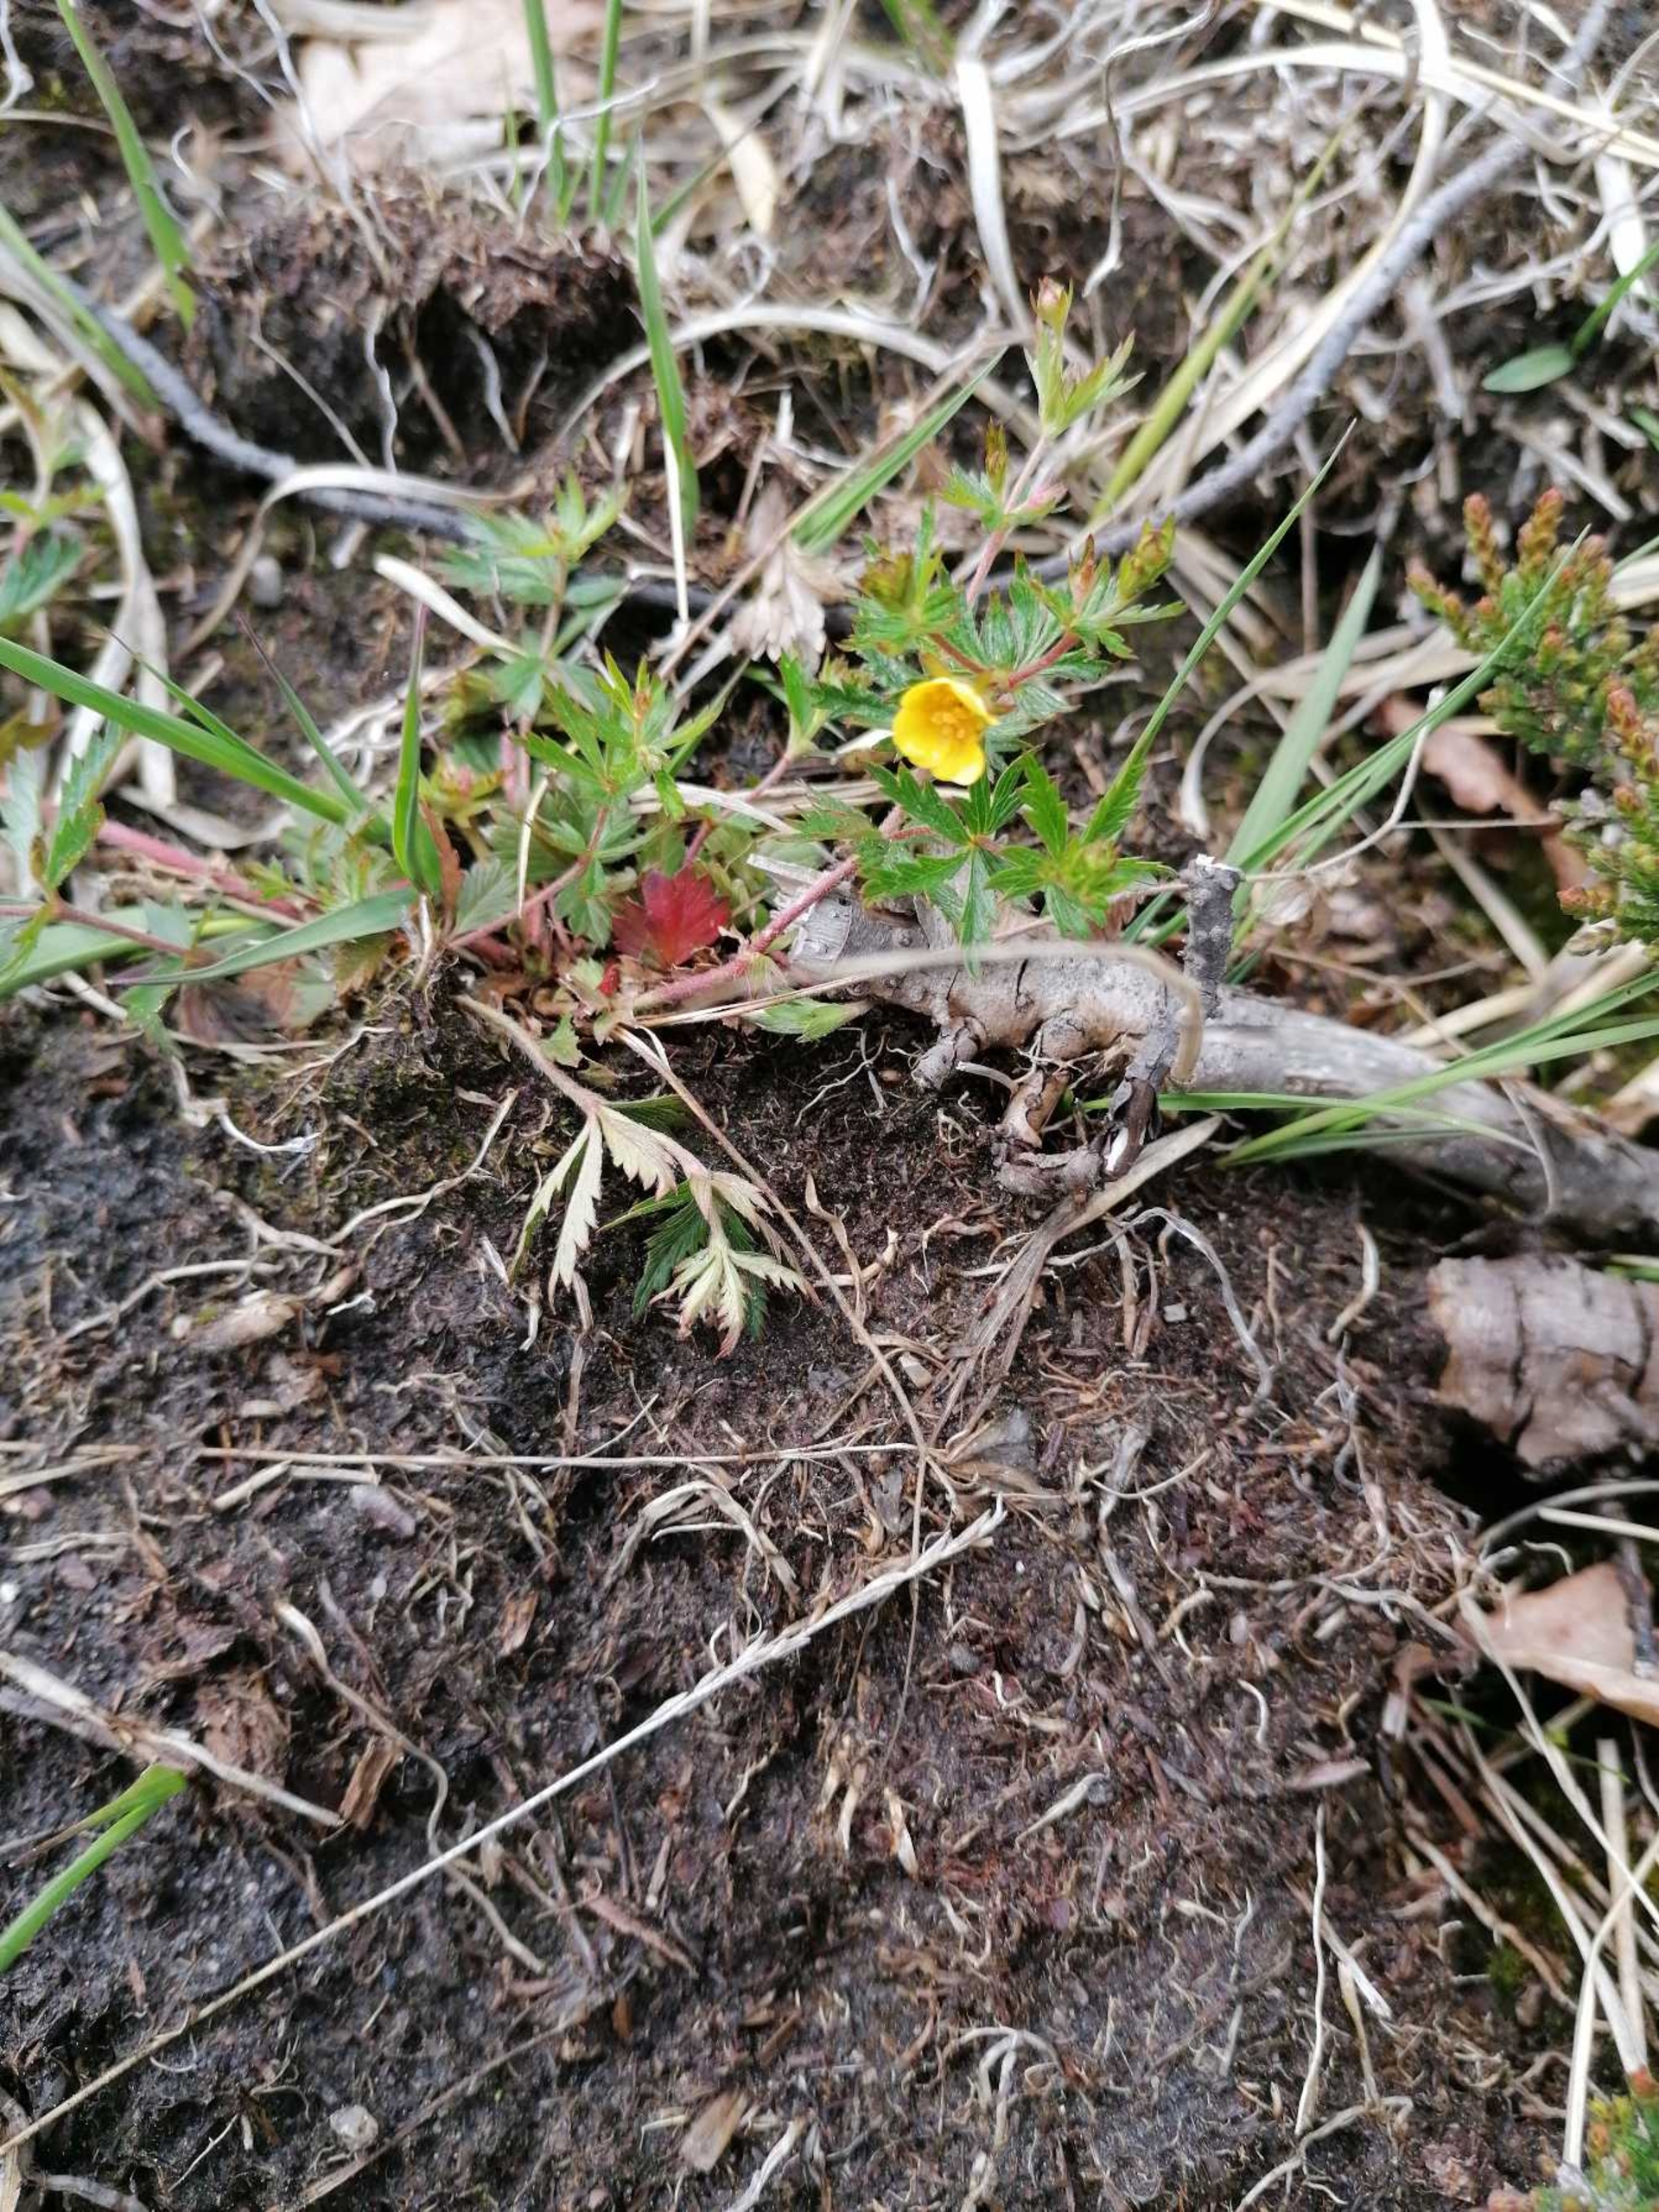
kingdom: Plantae
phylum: Tracheophyta
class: Magnoliopsida
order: Rosales
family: Rosaceae
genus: Potentilla
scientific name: Potentilla erecta
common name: Tormentil
